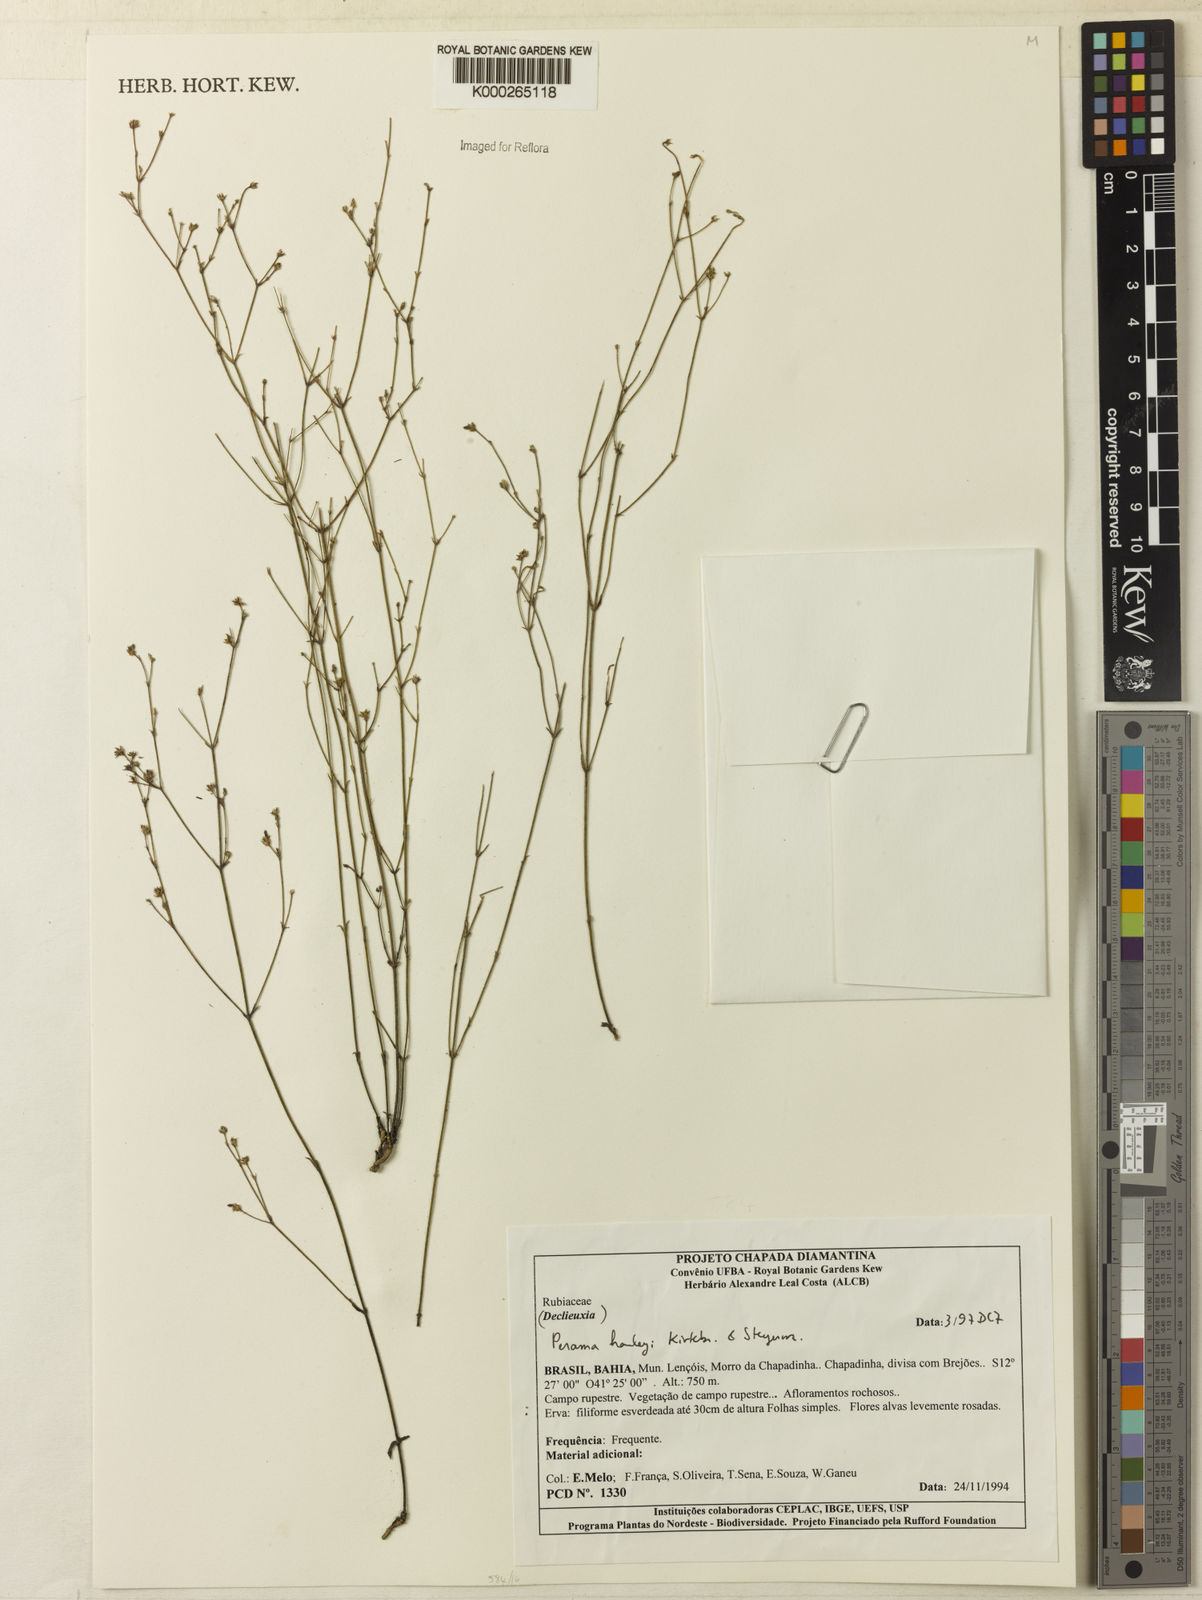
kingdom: Plantae
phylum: Tracheophyta
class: Magnoliopsida
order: Gentianales
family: Rubiaceae
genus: Perama
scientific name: Perama harleyi
